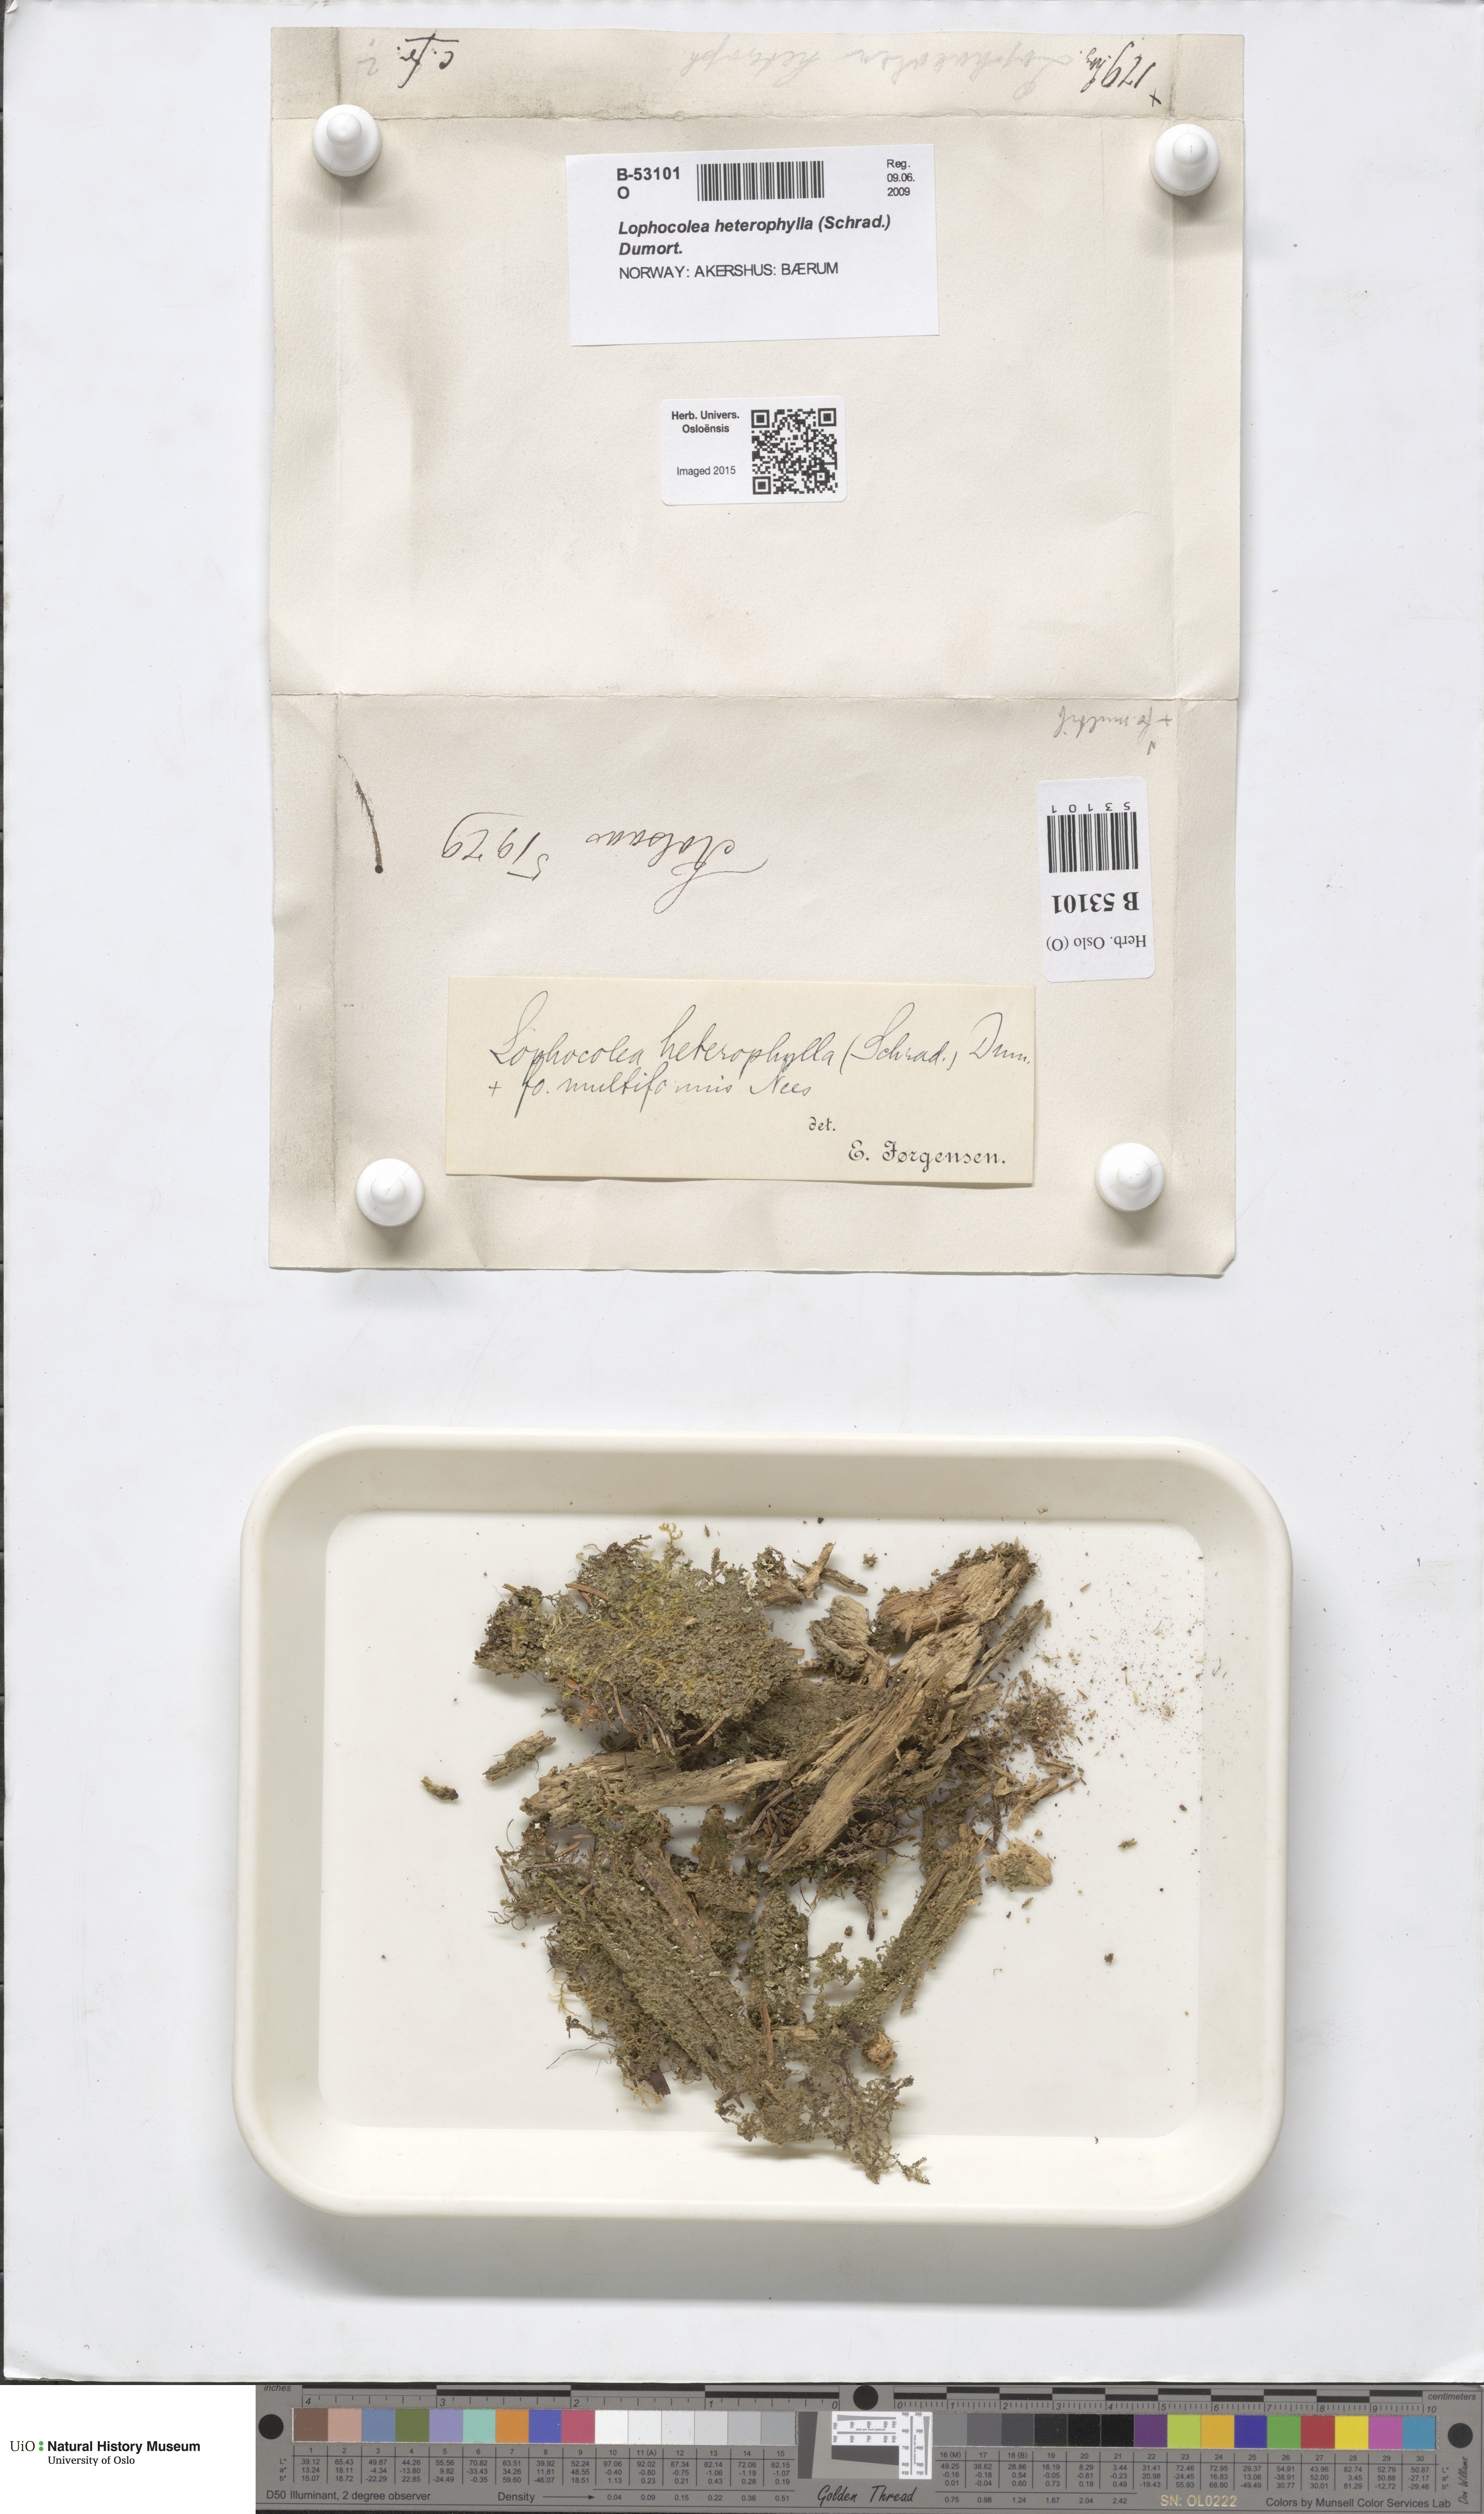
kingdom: Plantae
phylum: Marchantiophyta
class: Jungermanniopsida
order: Jungermanniales
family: Lophocoleaceae
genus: Lophocolea
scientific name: Lophocolea heterophylla
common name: Variable-leaved crestwort
